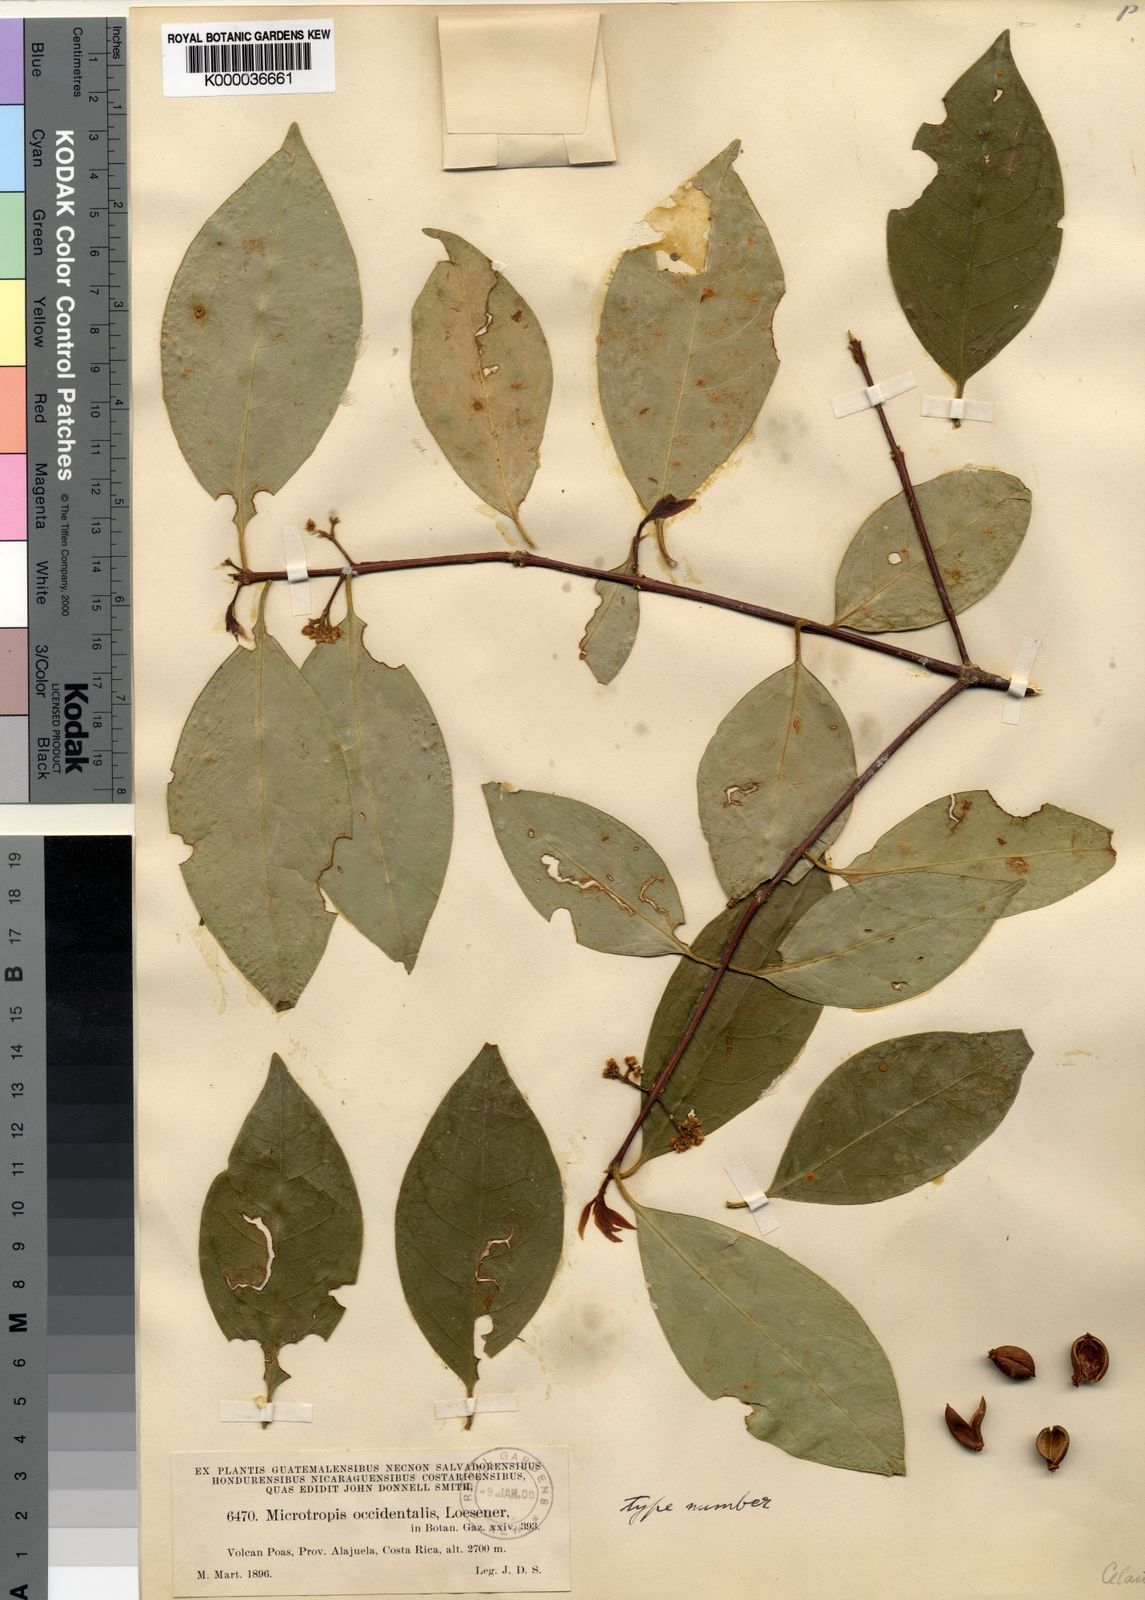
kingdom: Plantae
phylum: Tracheophyta
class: Magnoliopsida
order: Celastrales
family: Celastraceae
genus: Gyminda
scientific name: Gyminda tonduzii
